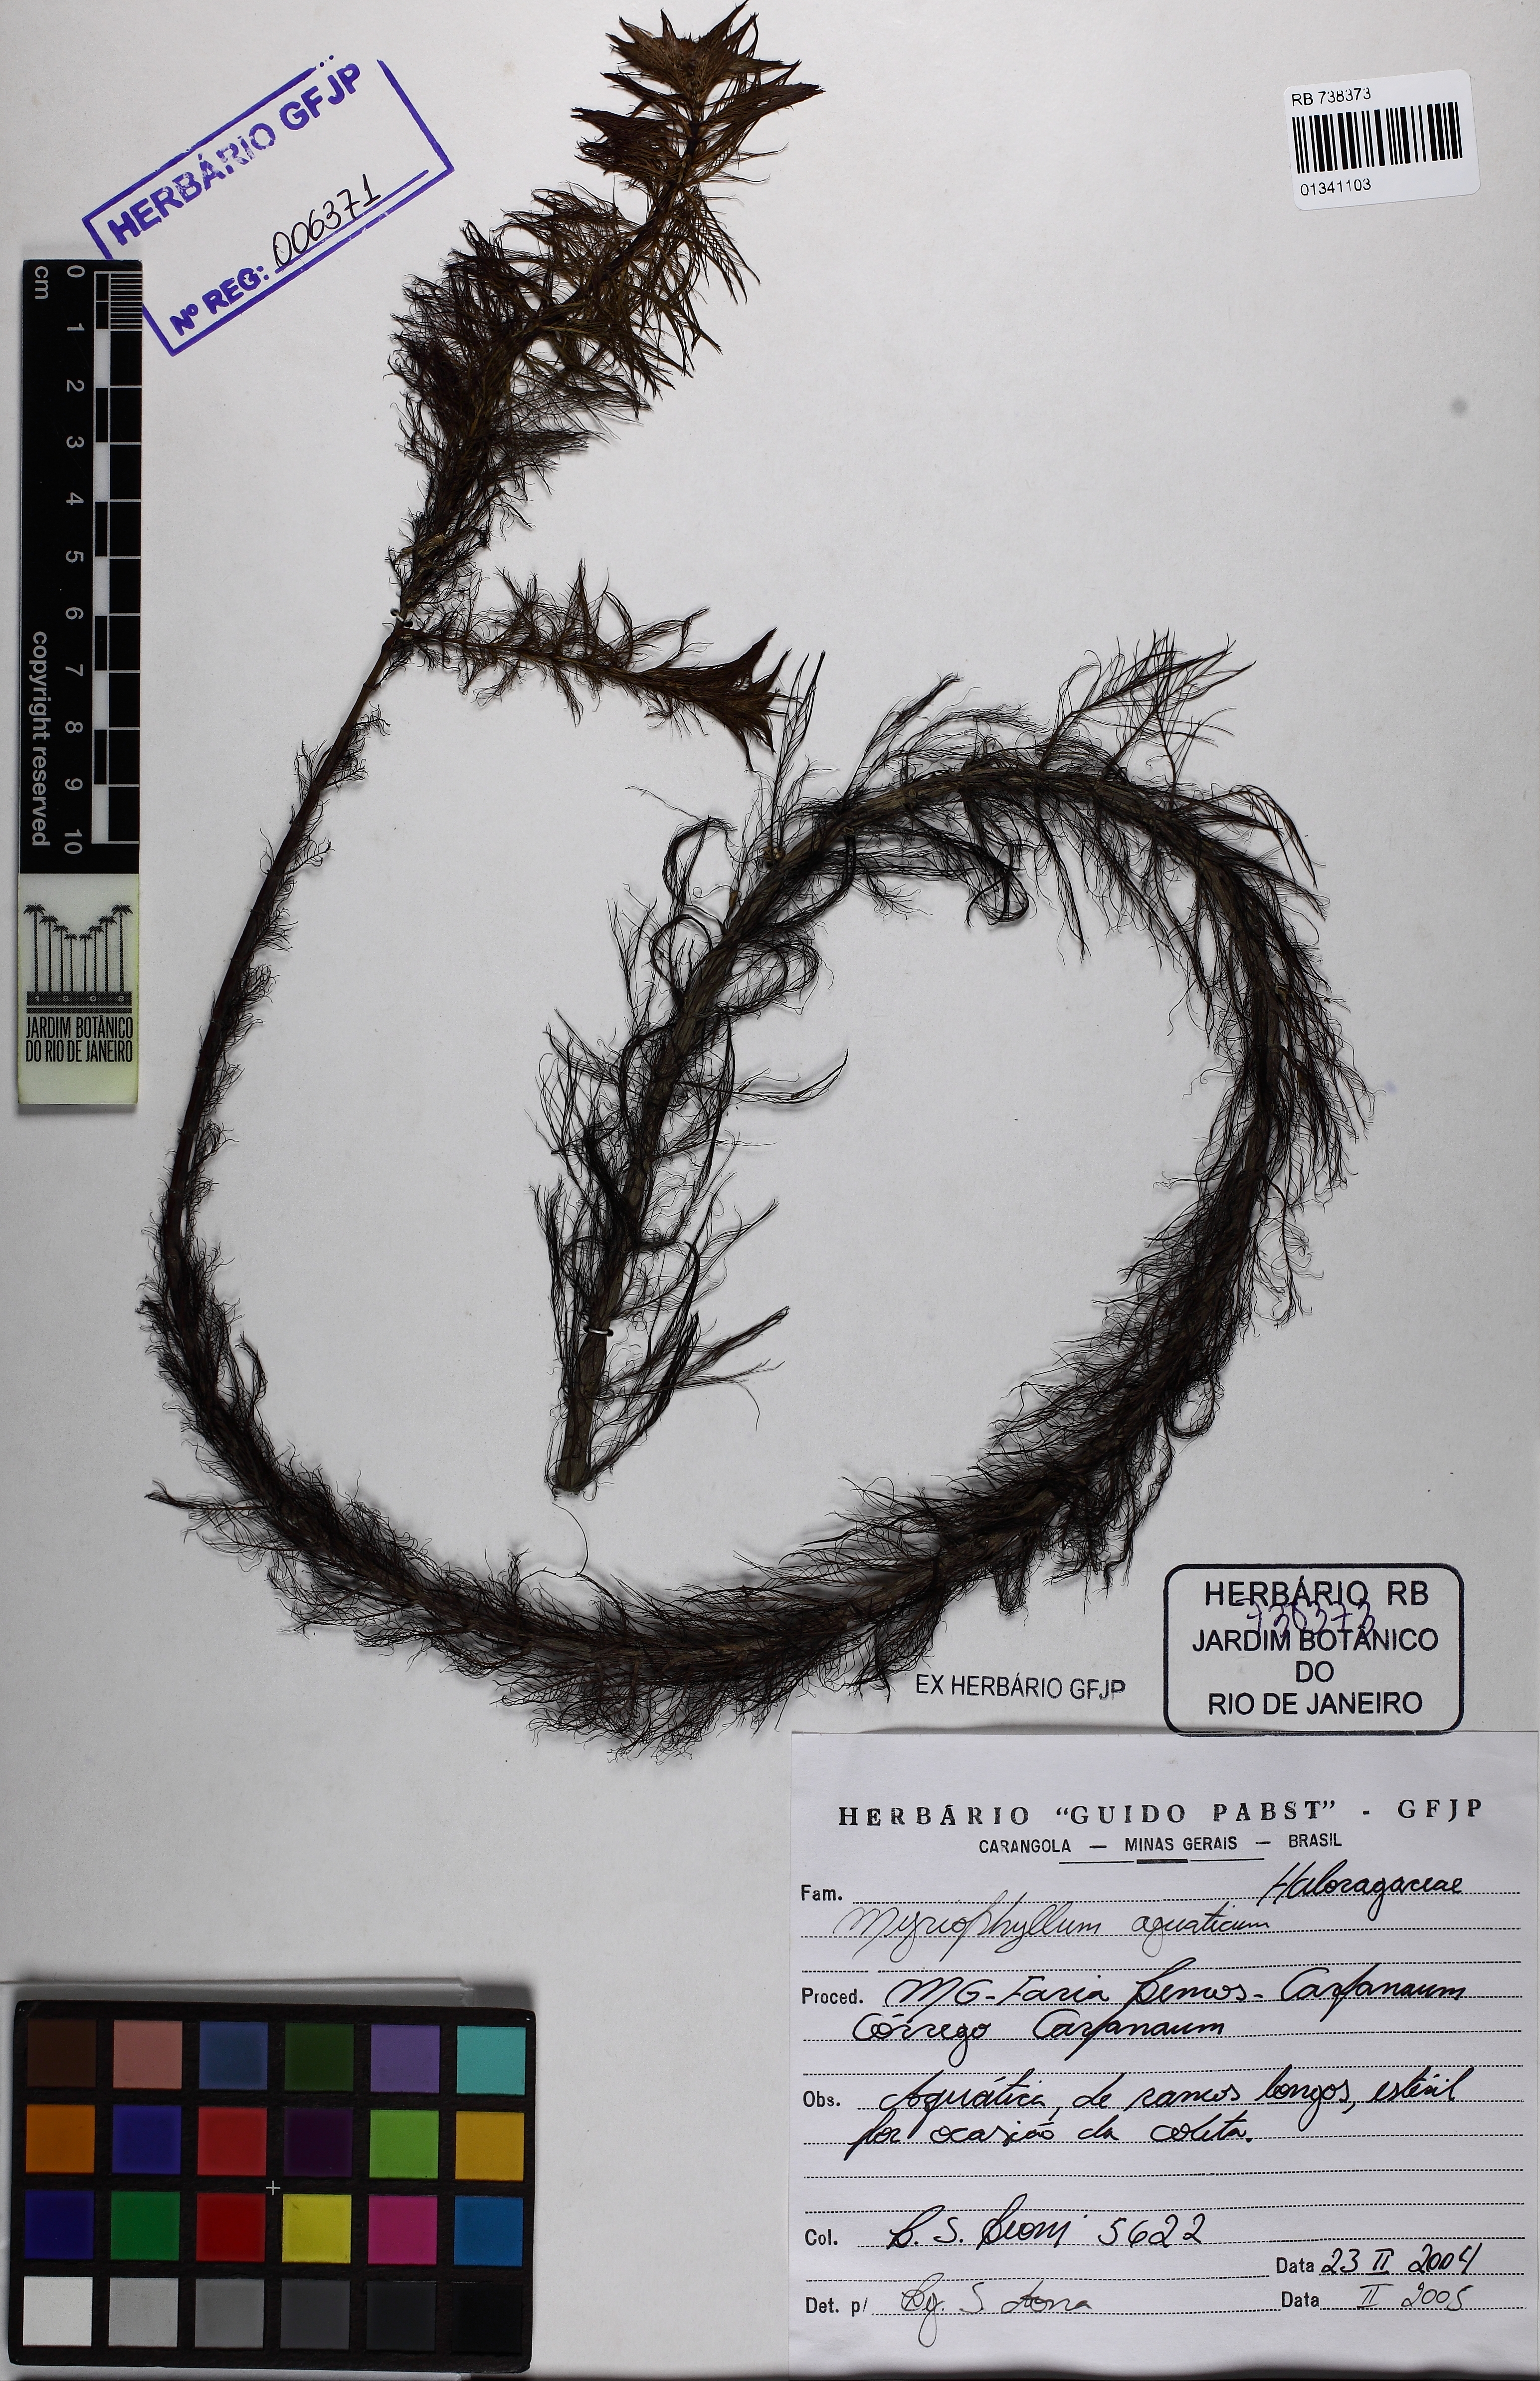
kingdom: Plantae
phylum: Tracheophyta
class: Magnoliopsida
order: Saxifragales
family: Haloragaceae
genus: Myriophyllum
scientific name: Myriophyllum aquaticum
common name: Parrot's feather
